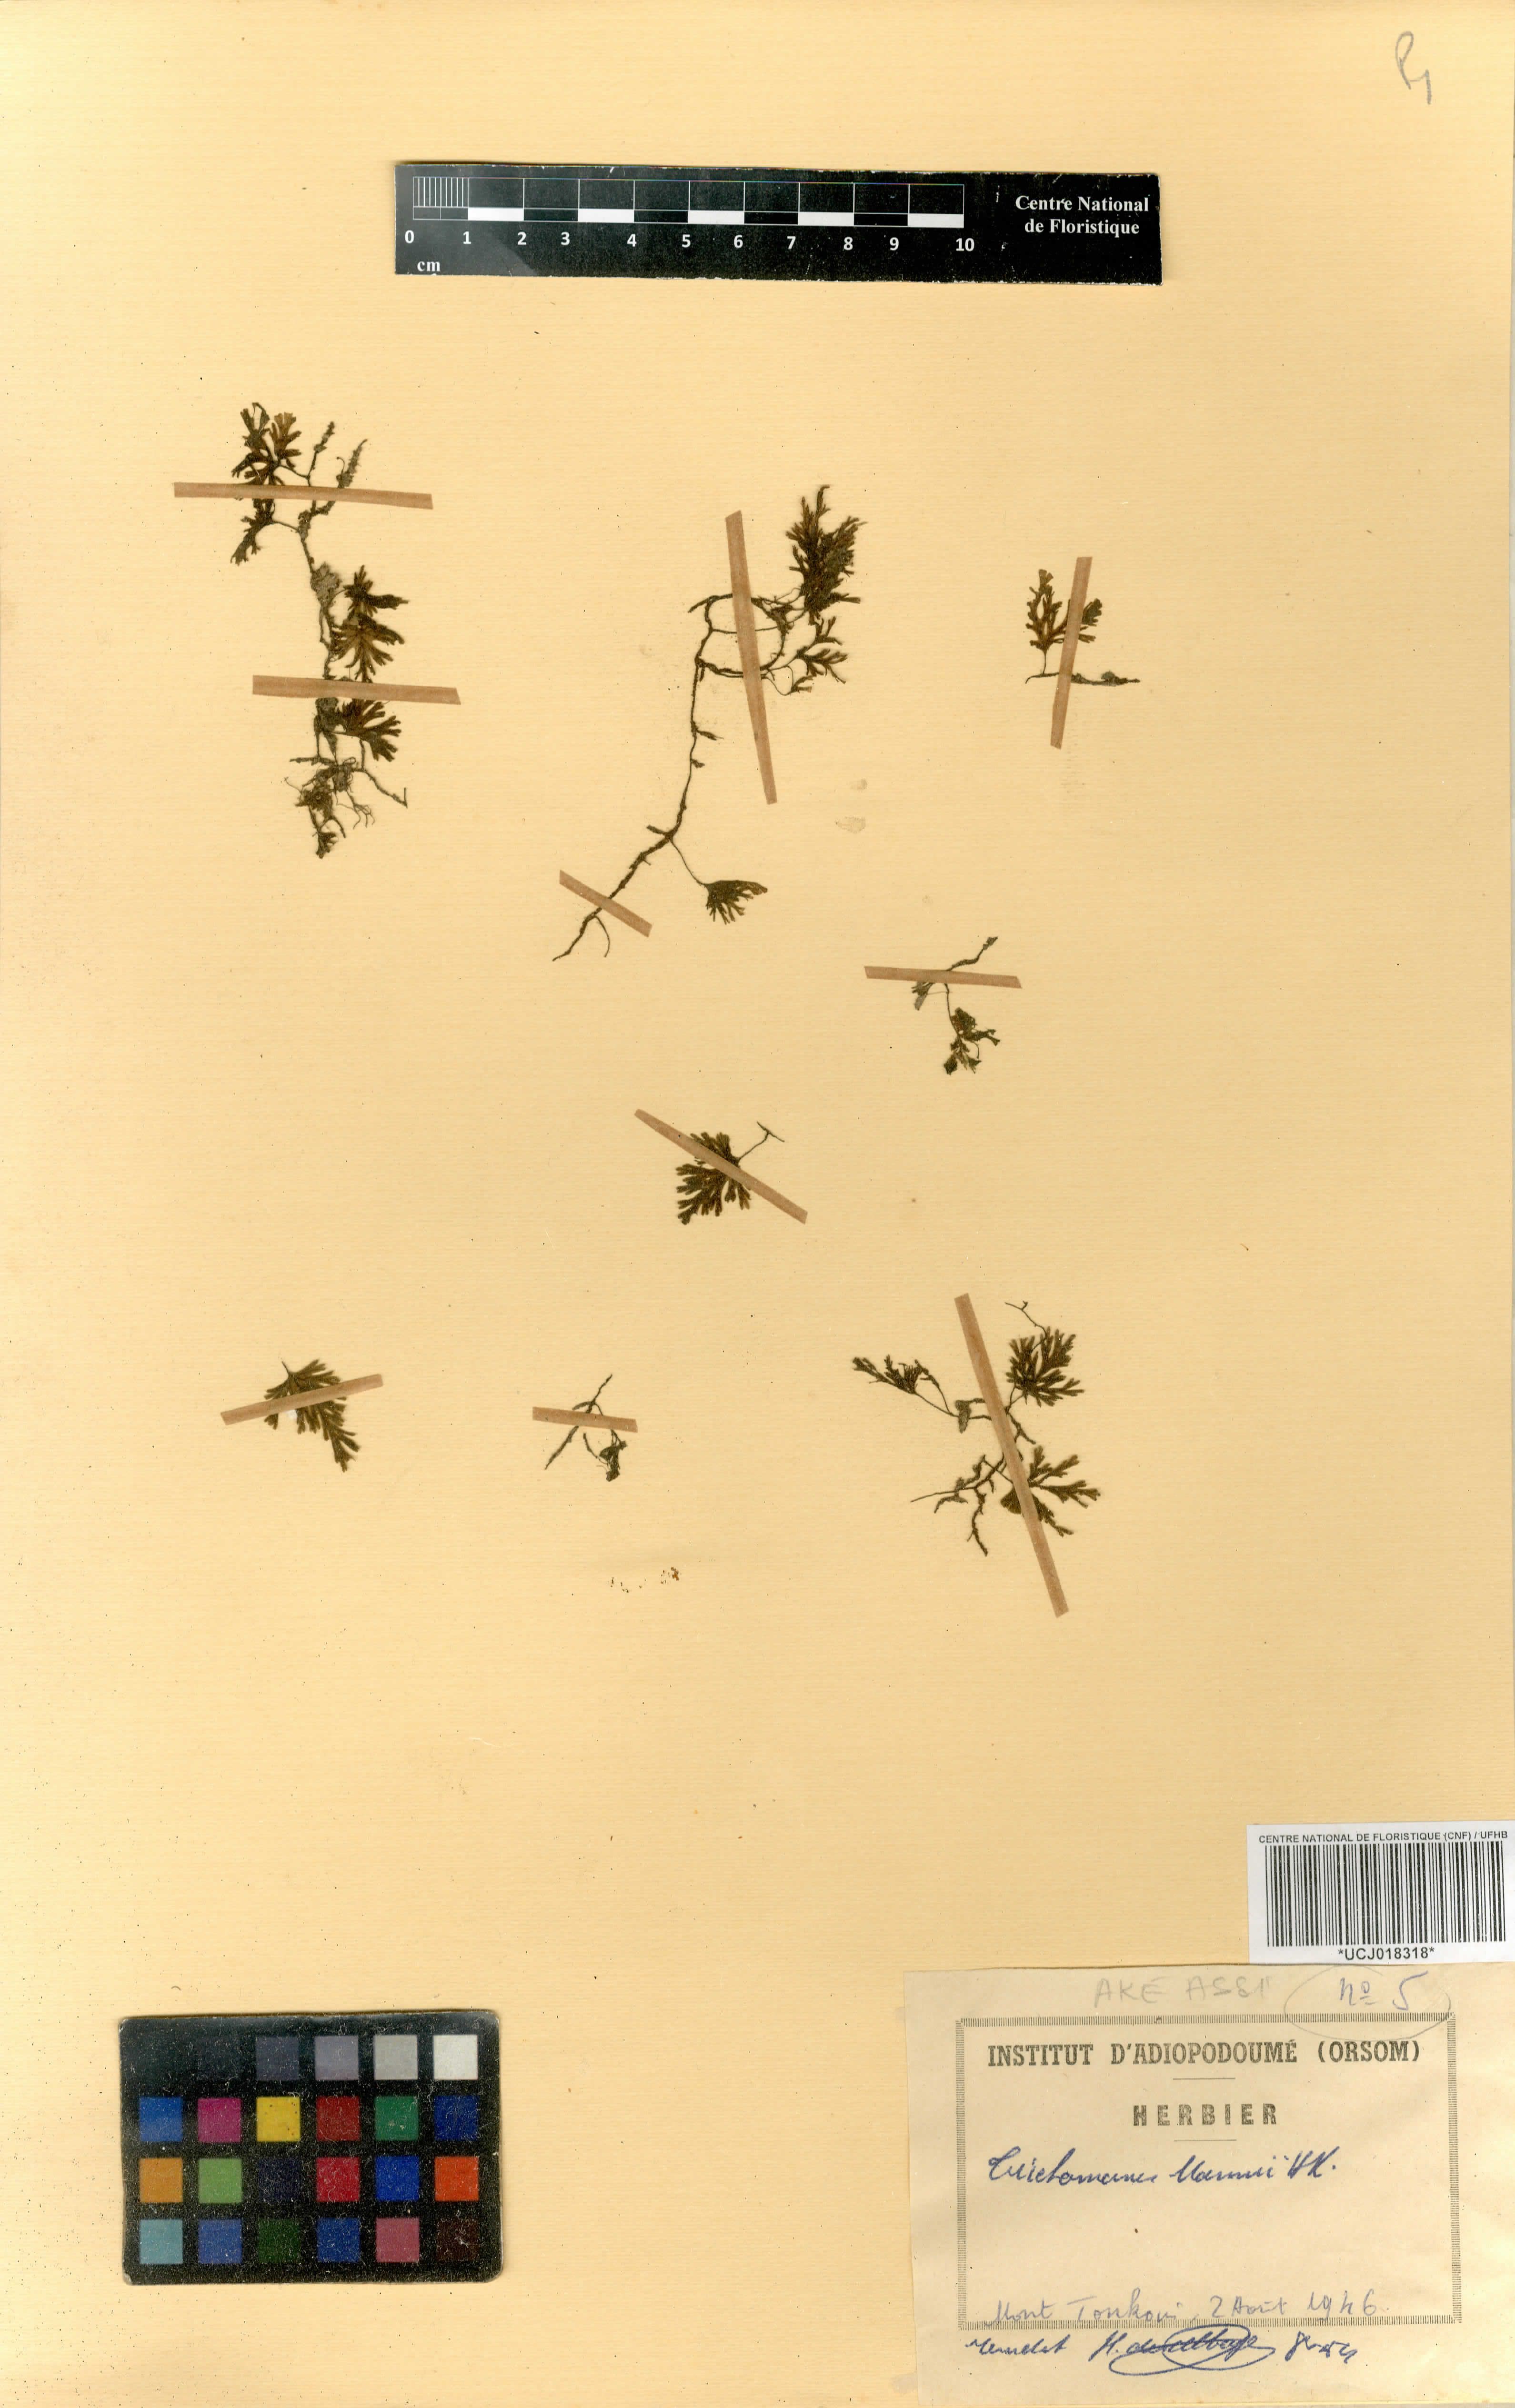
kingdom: Plantae
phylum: Tracheophyta
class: Polypodiopsida
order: Hymenophyllales
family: Hymenophyllaceae
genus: Crepidomanes
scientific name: Crepidomanes parvulum
